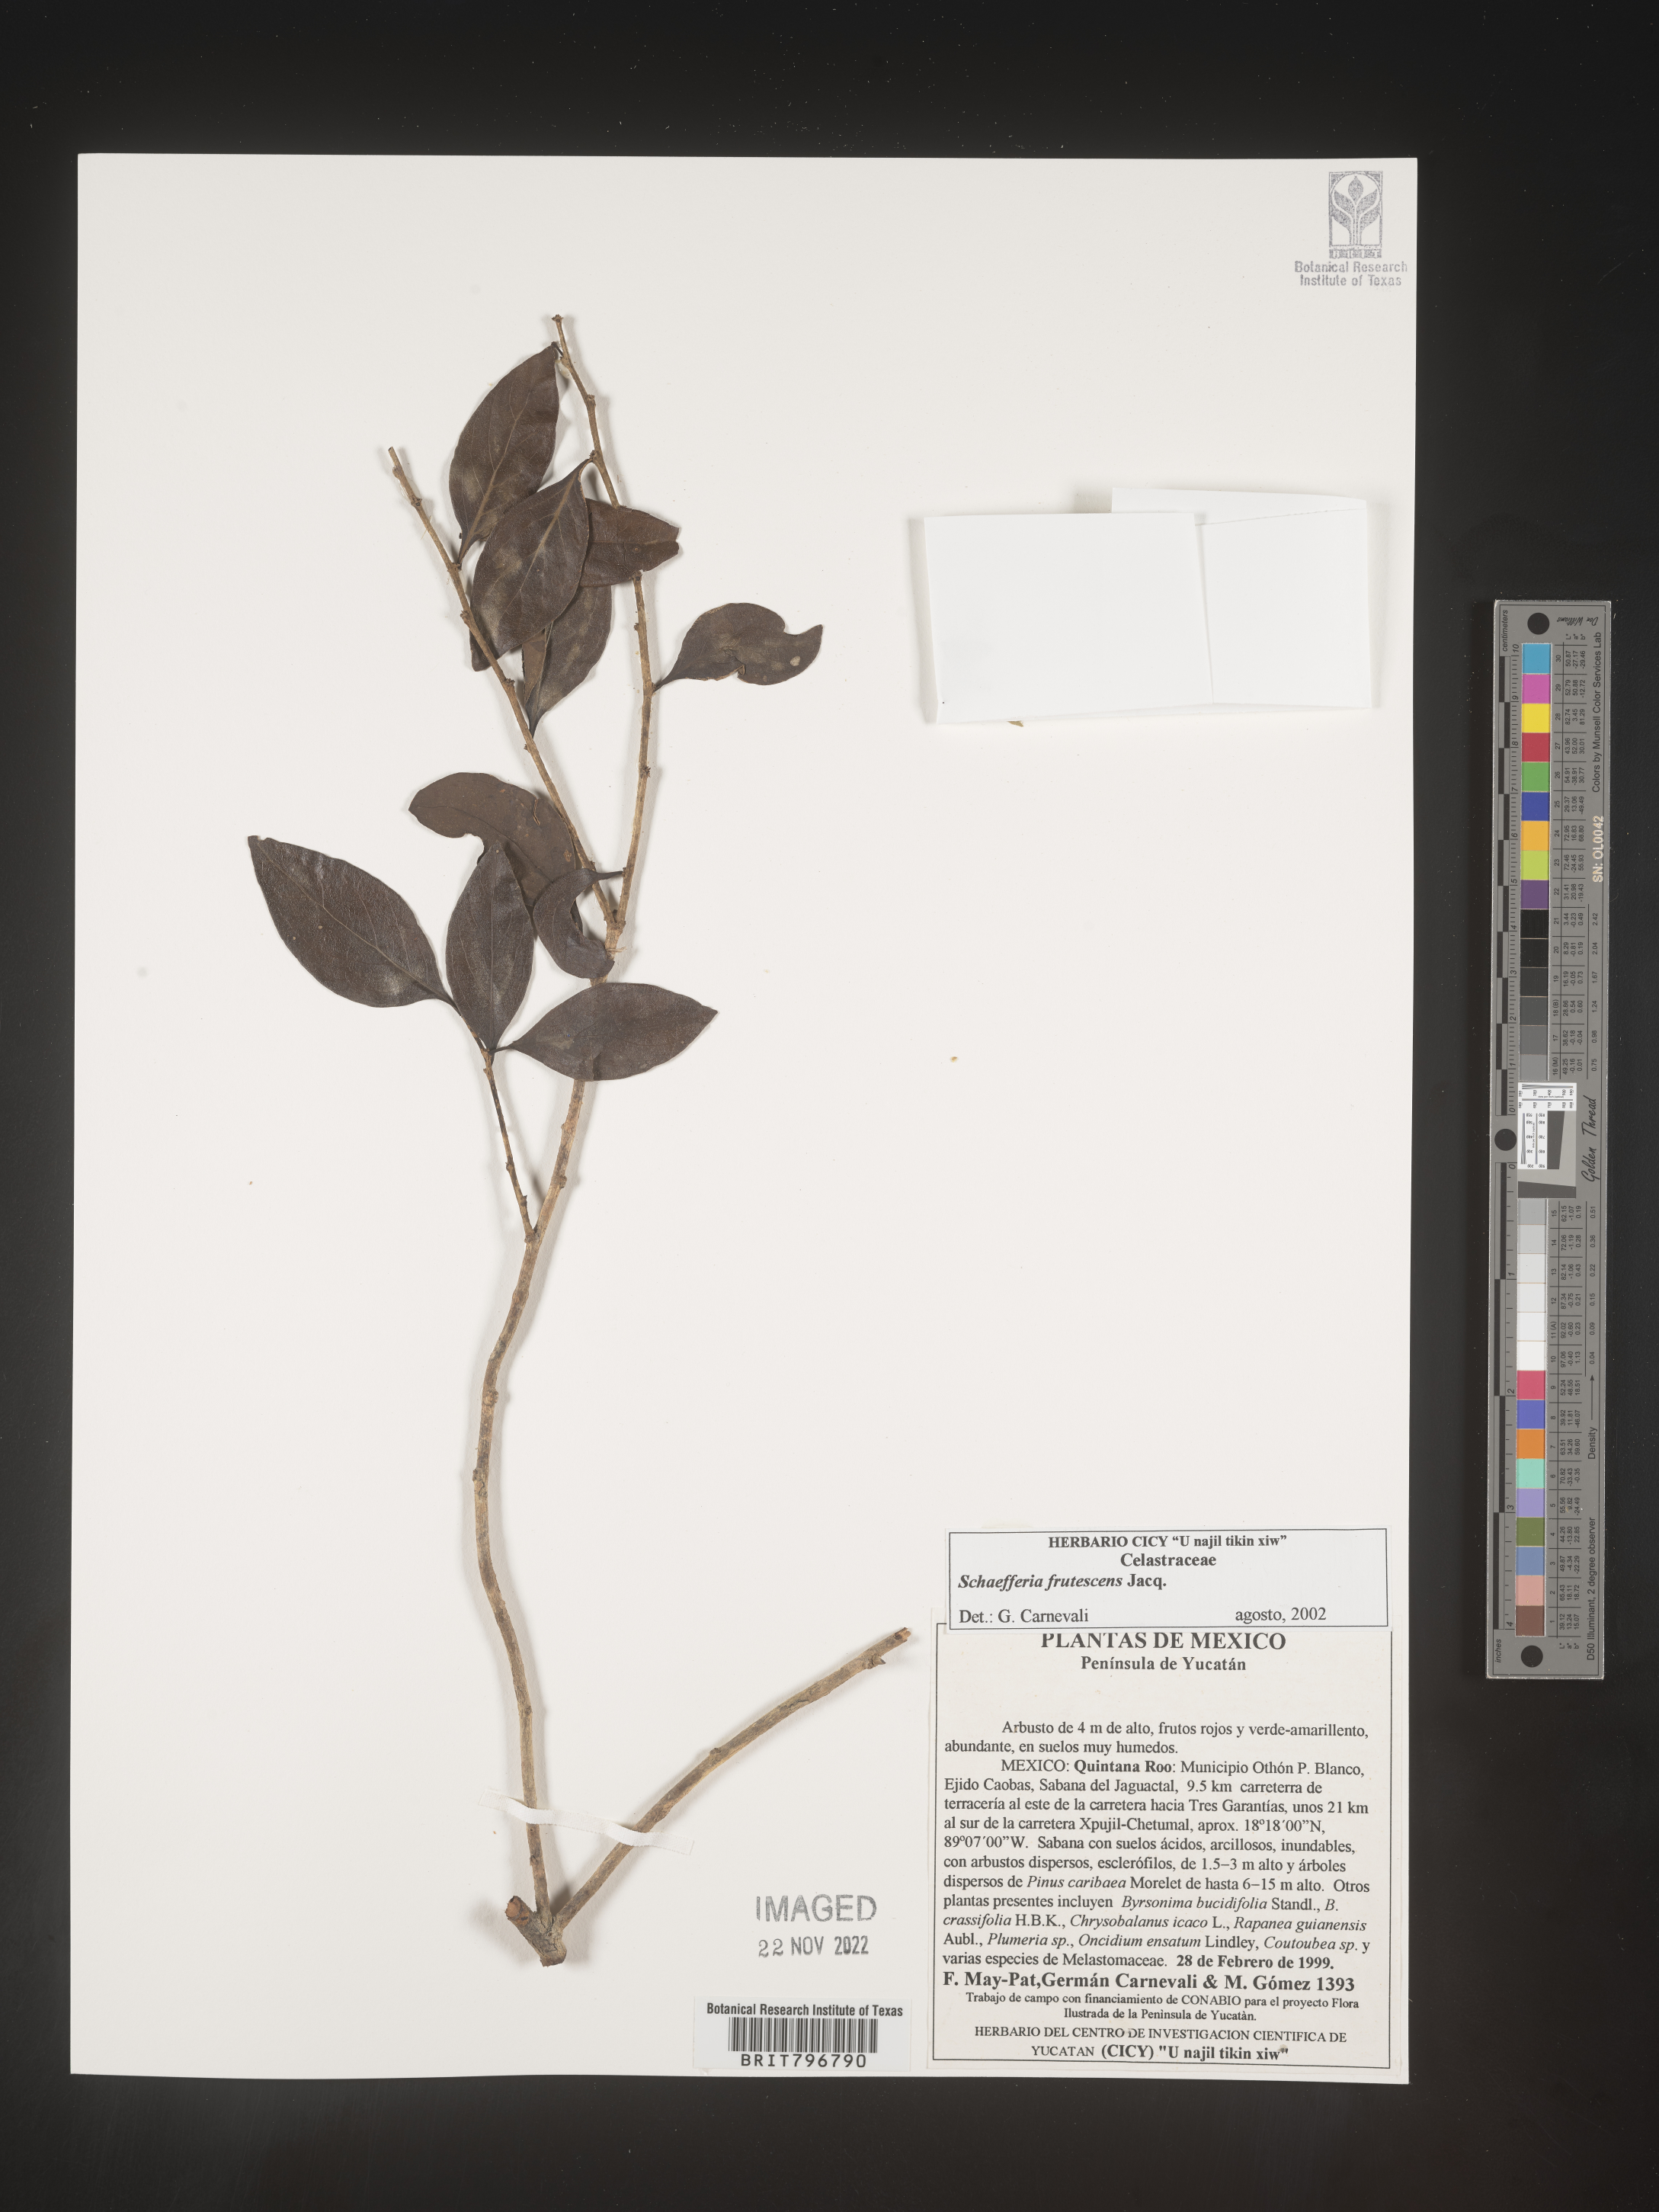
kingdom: Plantae
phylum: Tracheophyta
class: Magnoliopsida
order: Celastrales
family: Celastraceae
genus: Schaefferia
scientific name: Schaefferia
